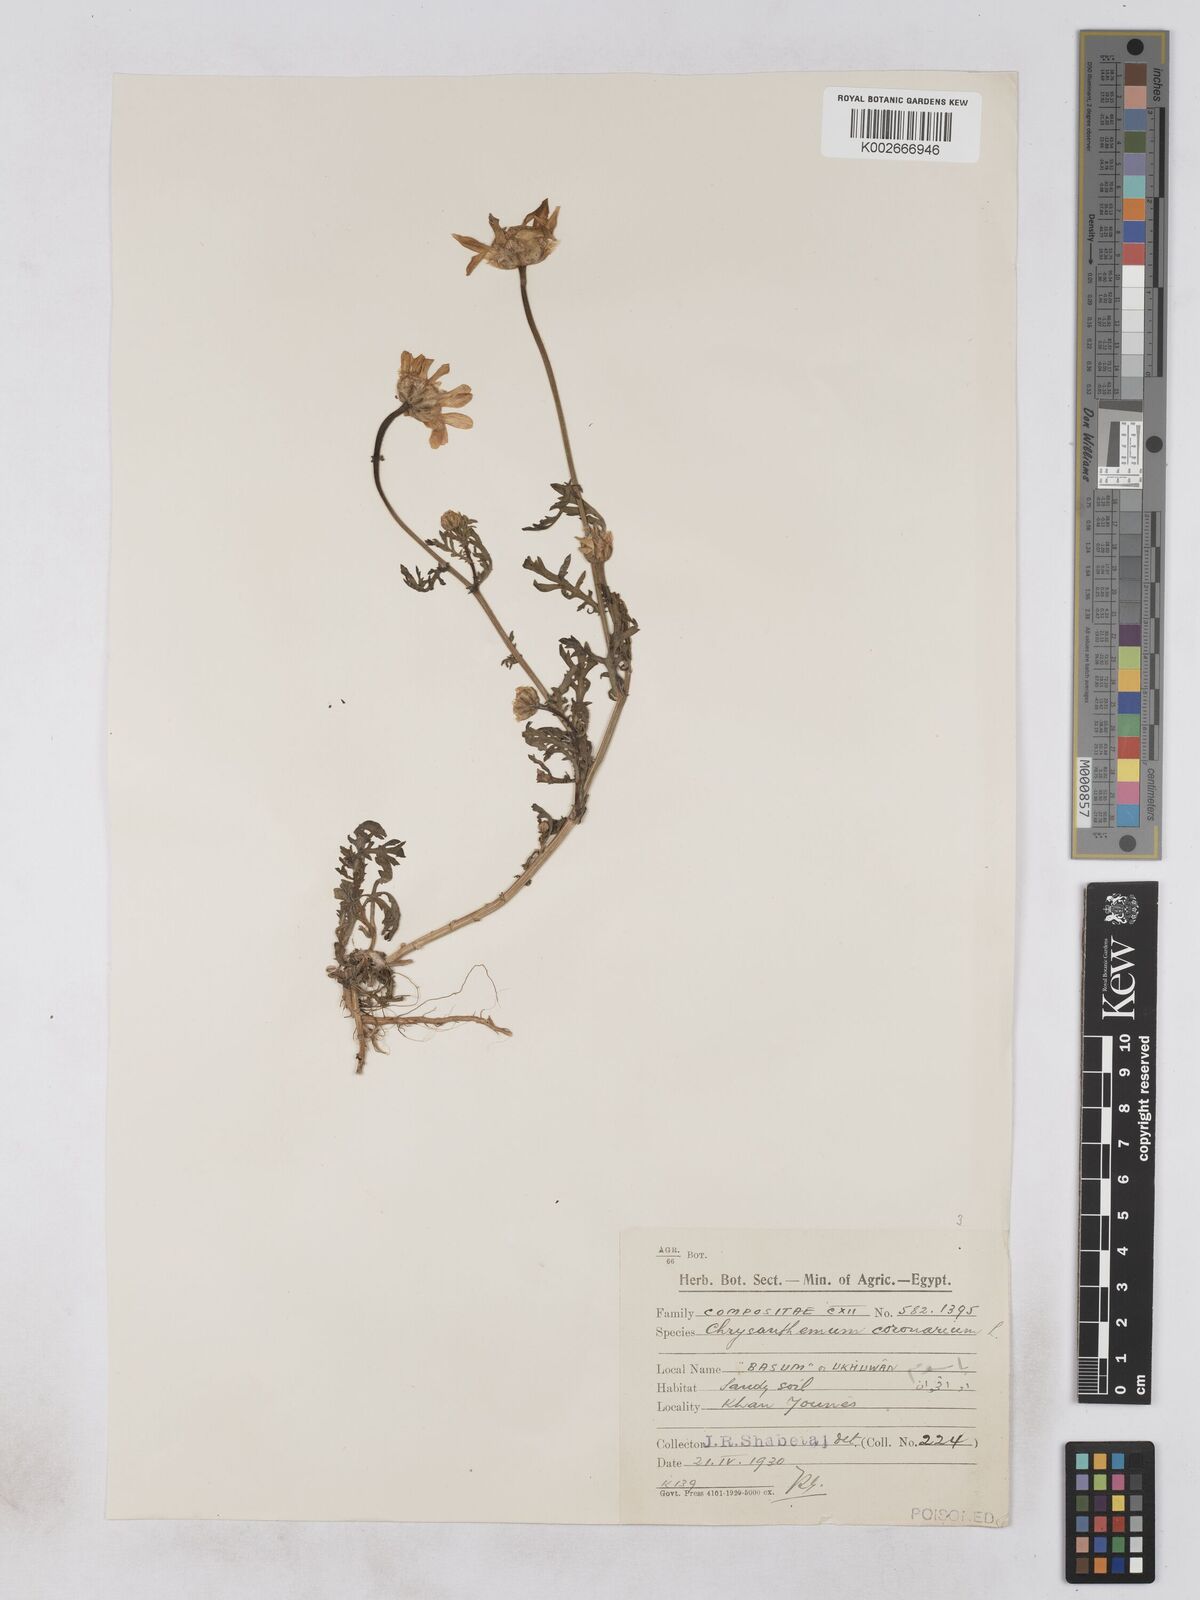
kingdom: Plantae
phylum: Tracheophyta
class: Magnoliopsida
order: Asterales
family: Asteraceae
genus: Glebionis
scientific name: Glebionis coronaria
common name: Crowndaisy
